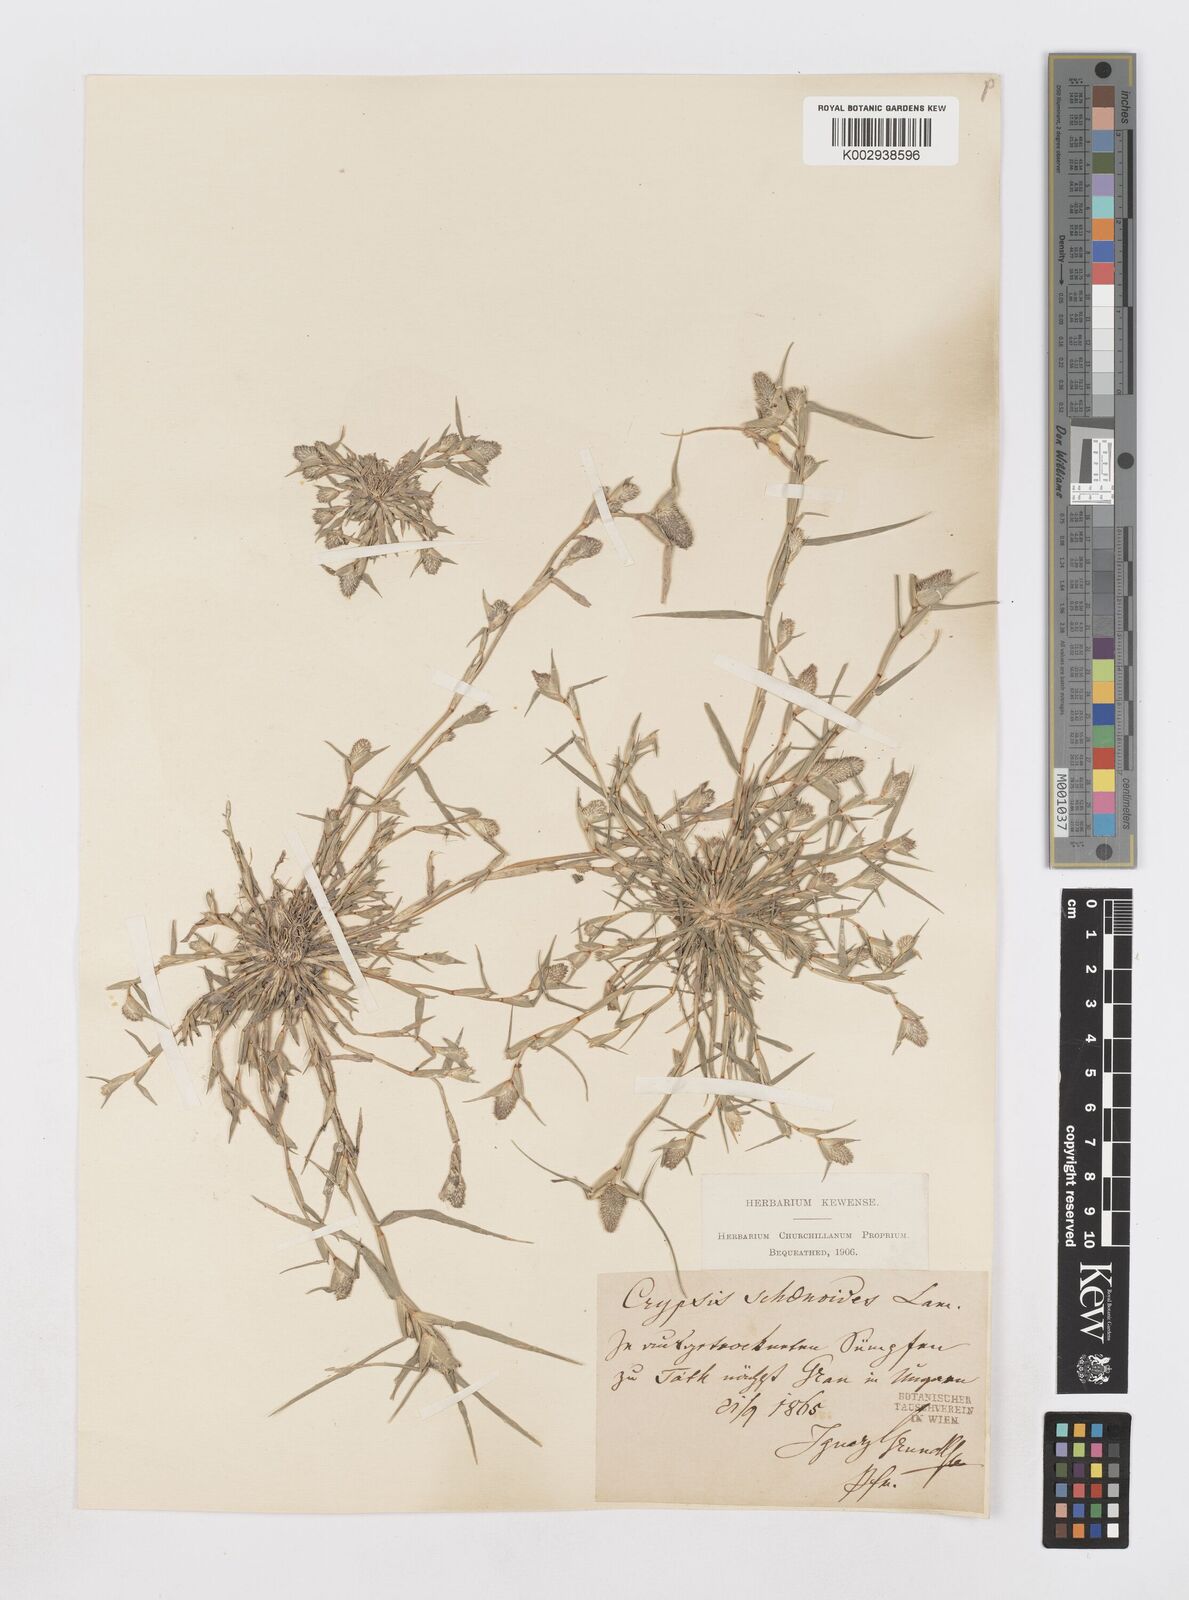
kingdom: Plantae
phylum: Tracheophyta
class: Liliopsida
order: Poales
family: Poaceae
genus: Sporobolus
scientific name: Sporobolus schoenoides
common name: Rush-like timothy
